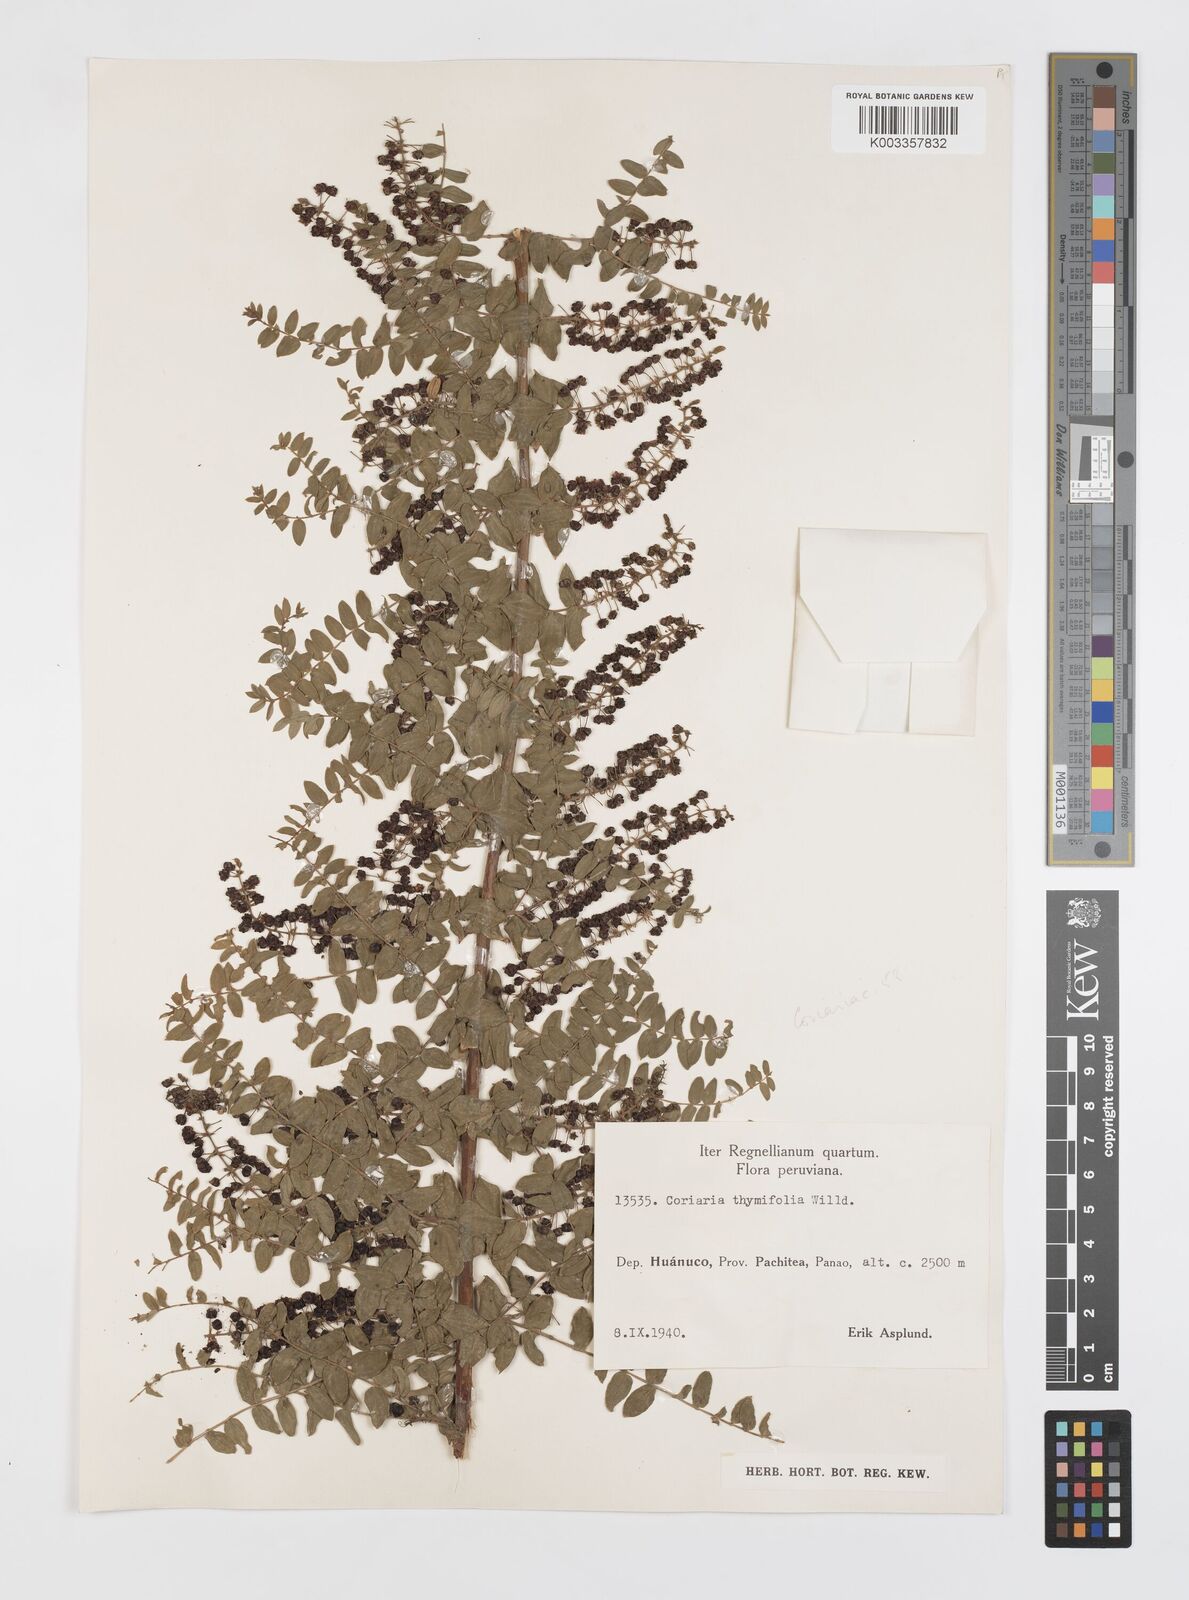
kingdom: Plantae
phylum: Tracheophyta
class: Magnoliopsida
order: Cucurbitales
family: Coriariaceae
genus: Coriaria
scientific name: Coriaria microphylla
